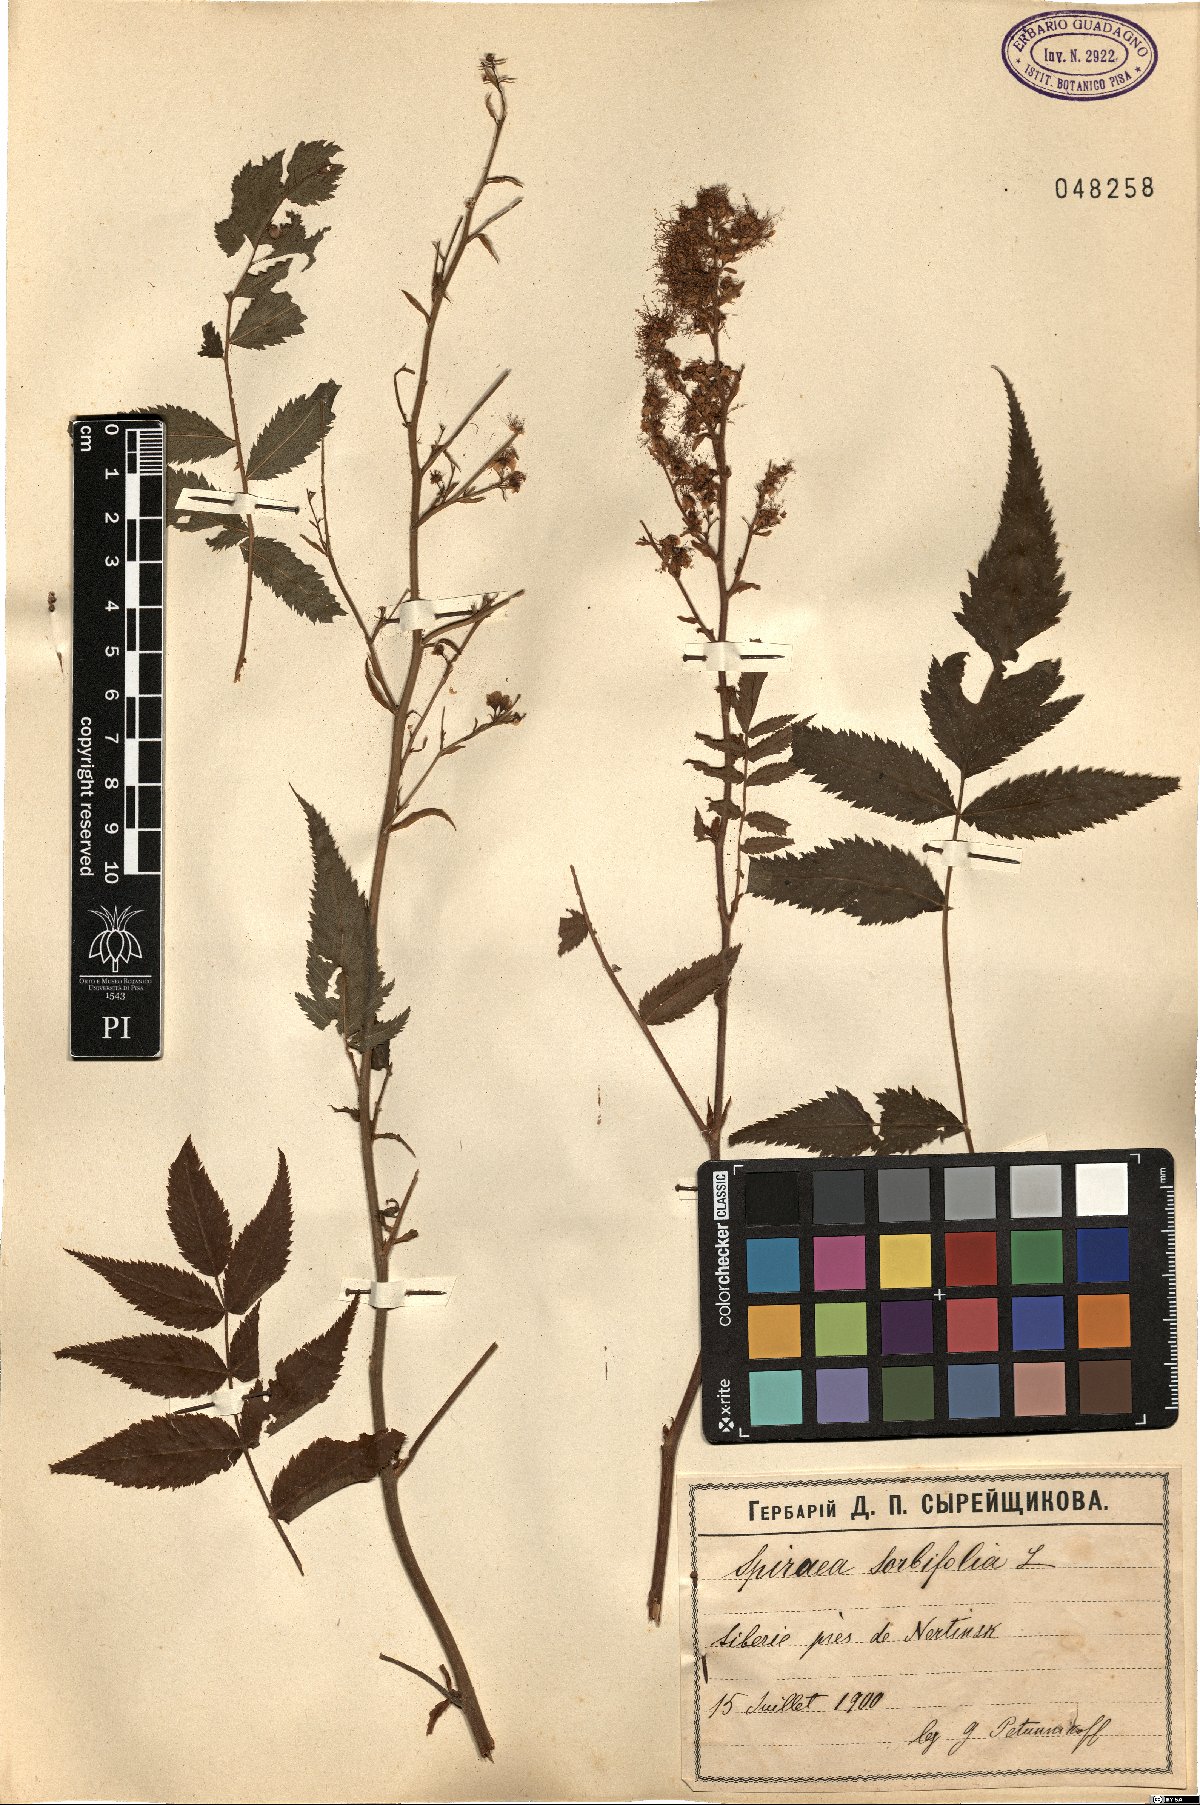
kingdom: Plantae
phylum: Tracheophyta
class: Magnoliopsida
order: Rosales
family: Rosaceae
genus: Sorbaria
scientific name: Sorbaria sorbifolia
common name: False spiraea
